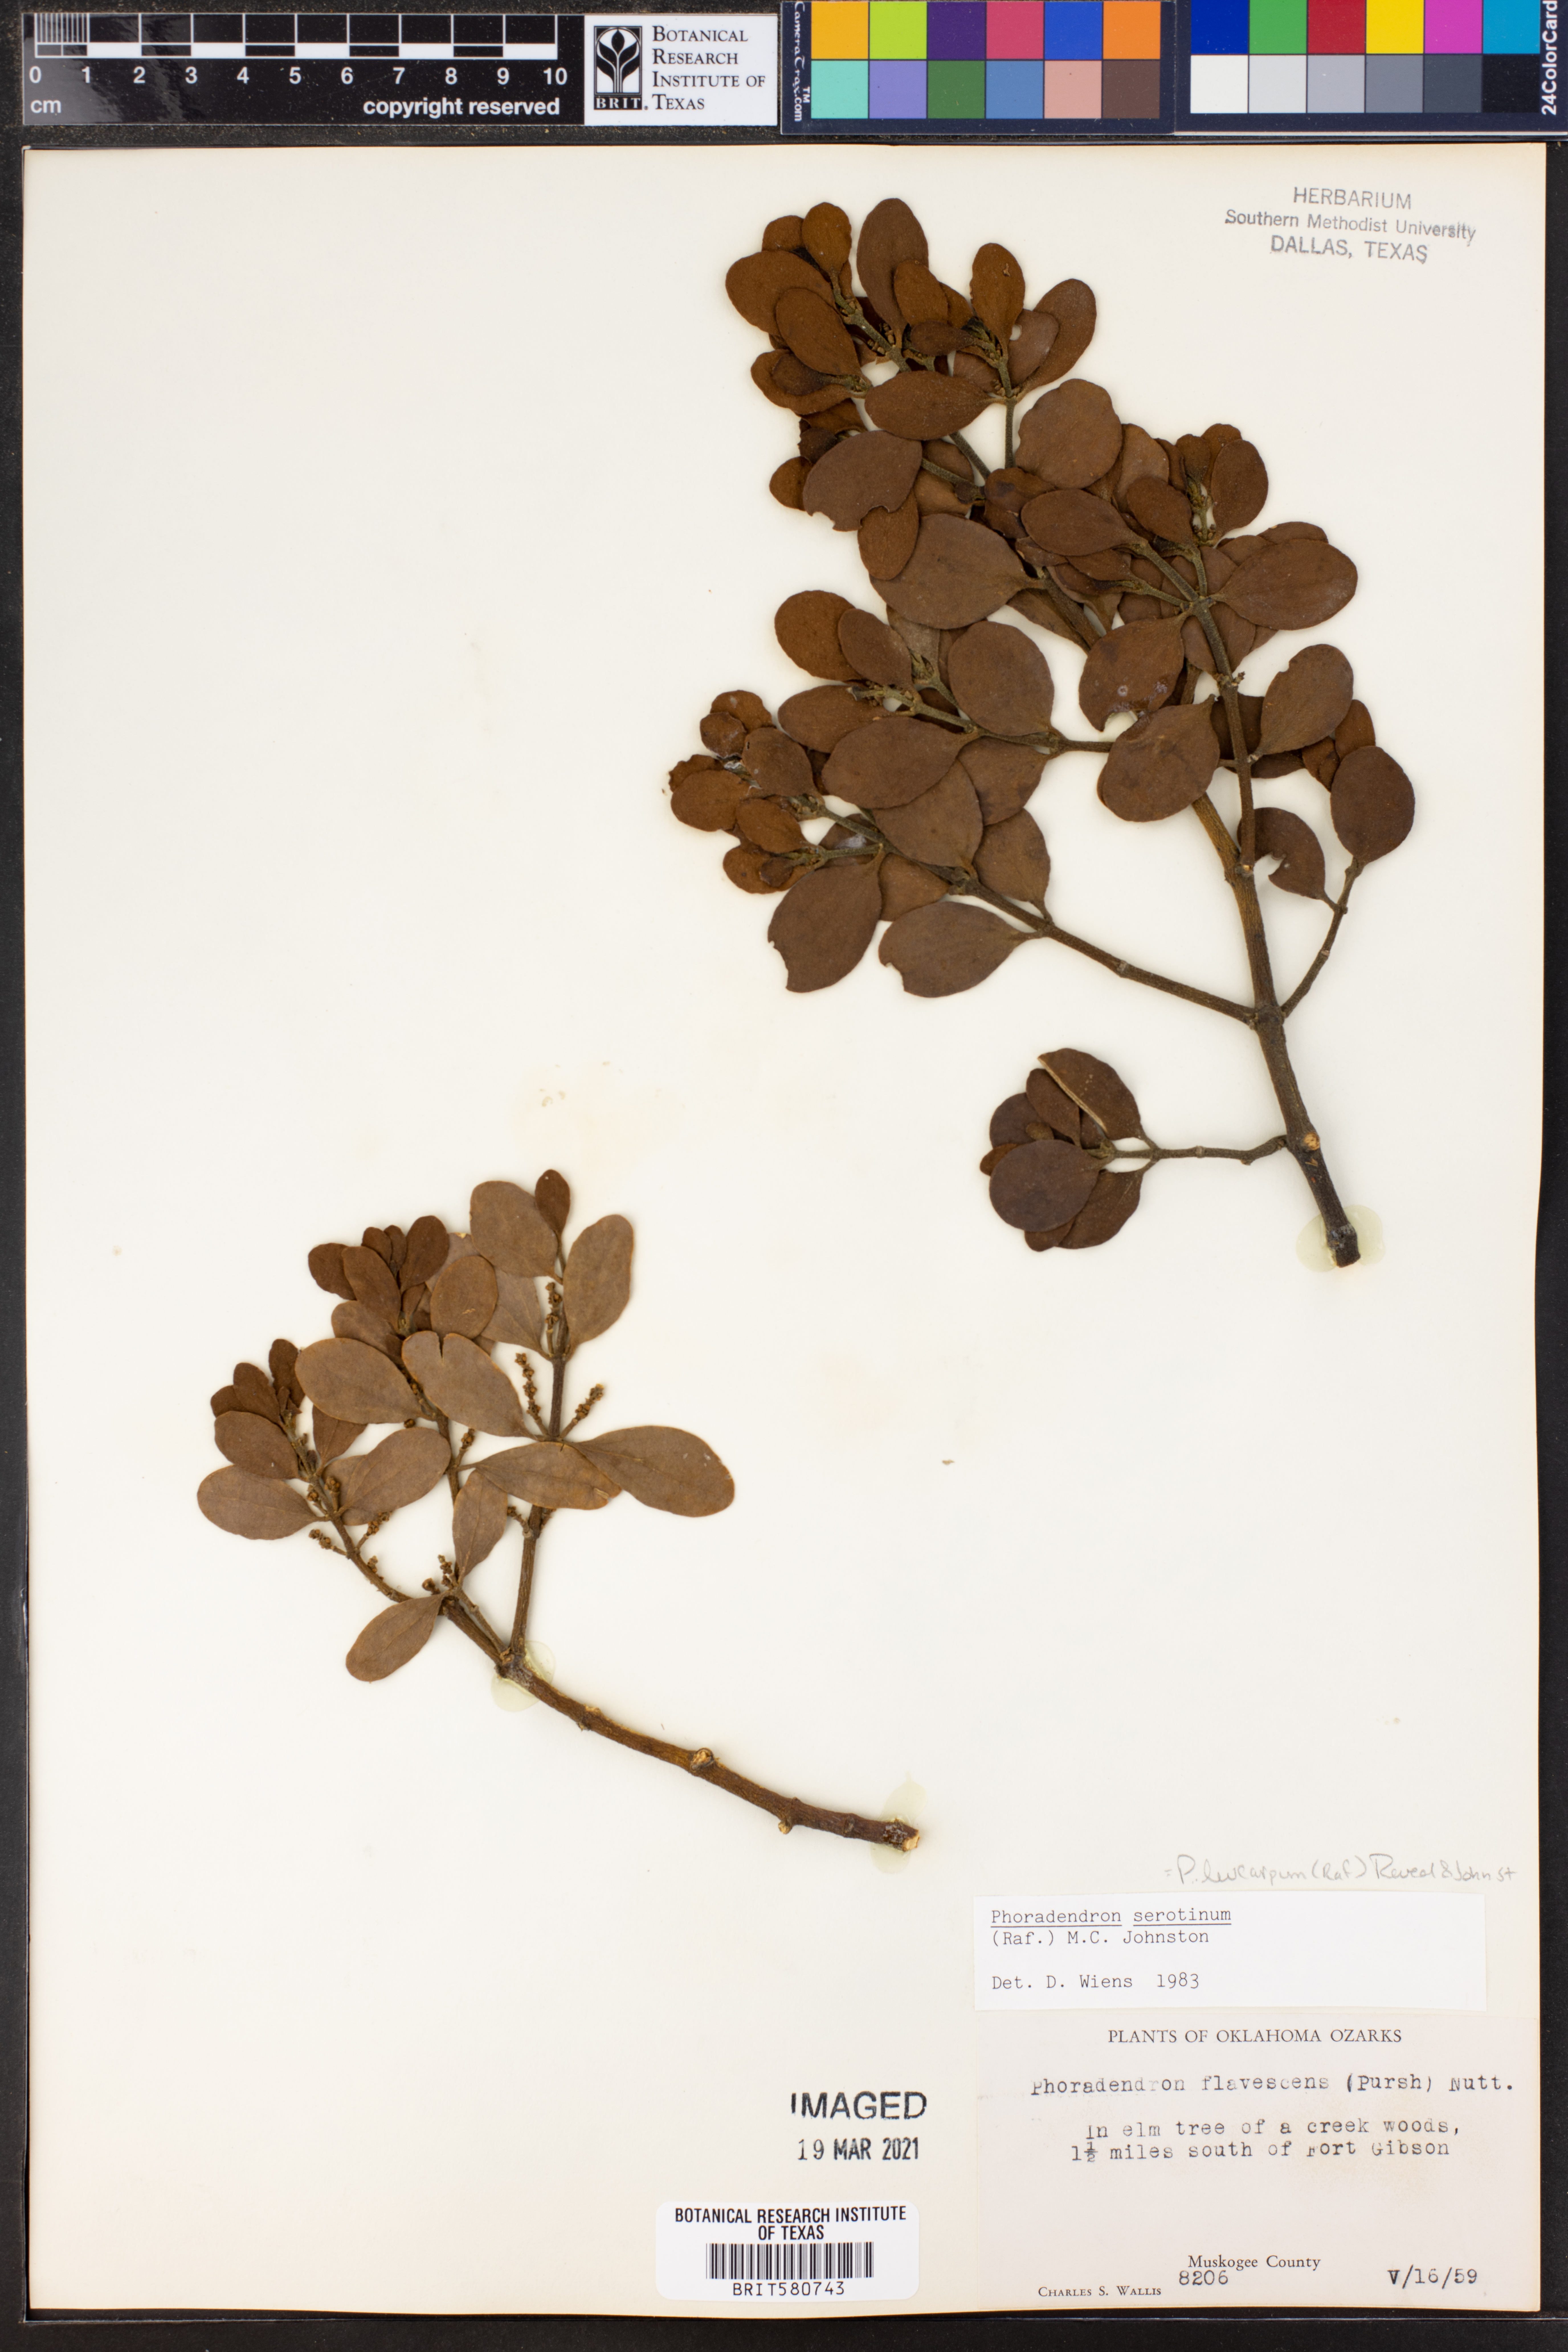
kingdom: Plantae
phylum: Tracheophyta
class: Magnoliopsida
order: Santalales
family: Viscaceae
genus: Phoradendron
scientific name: Phoradendron leucarpum
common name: Pacific mistletoe
